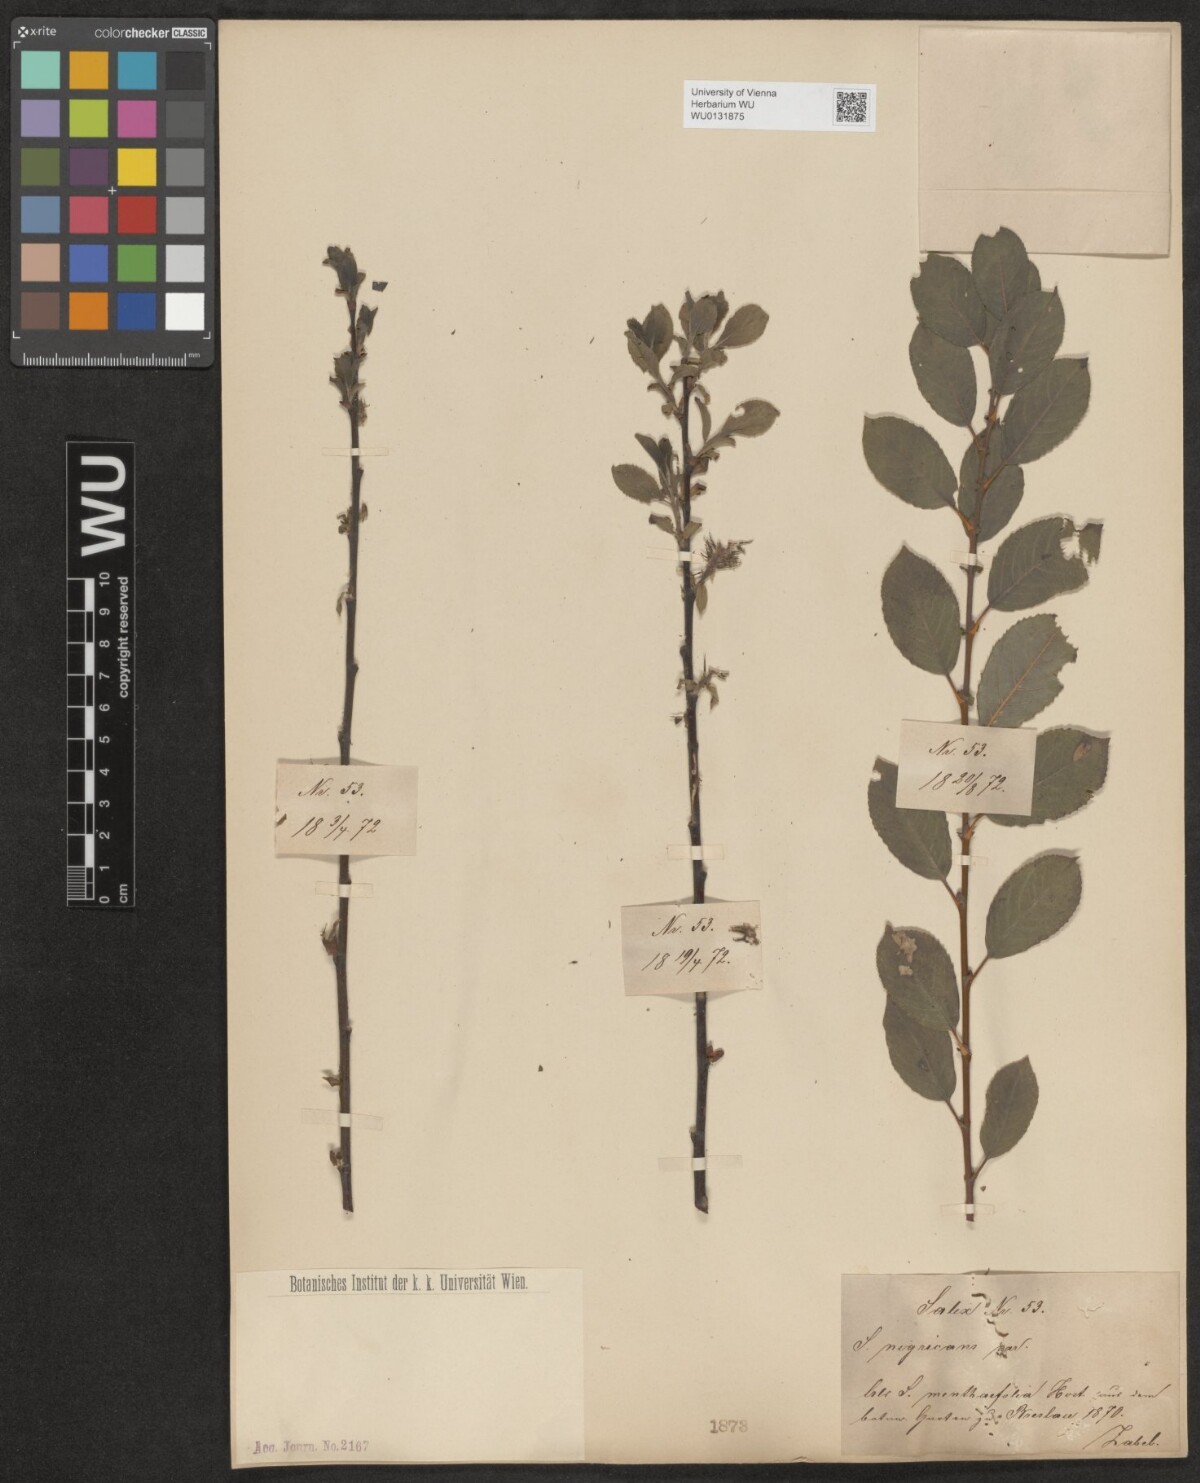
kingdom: Plantae
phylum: Tracheophyta
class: Magnoliopsida
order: Malpighiales
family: Salicaceae
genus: Salix
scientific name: Salix myrsinifolia
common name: Dark-leaved willow
